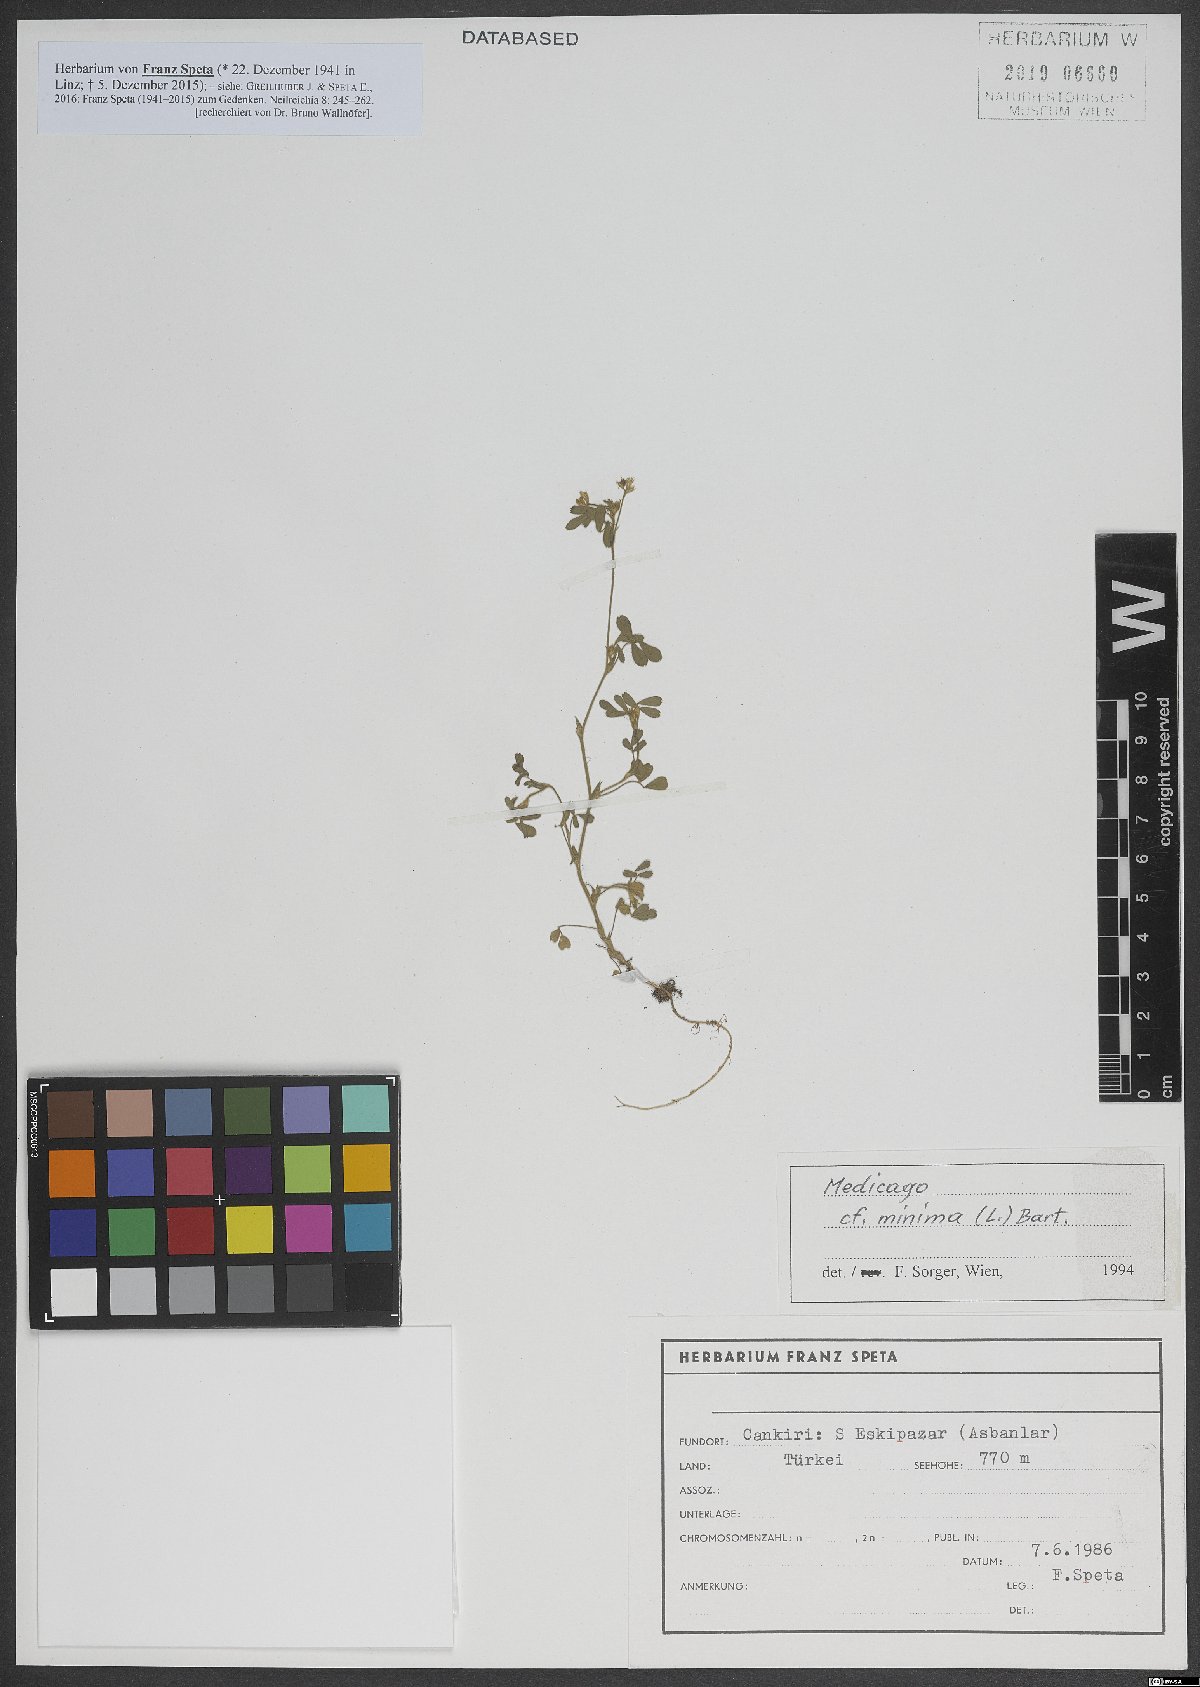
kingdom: Plantae
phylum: Tracheophyta
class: Magnoliopsida
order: Fabales
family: Fabaceae
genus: Medicago
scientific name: Medicago minima
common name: Little bur-clover
